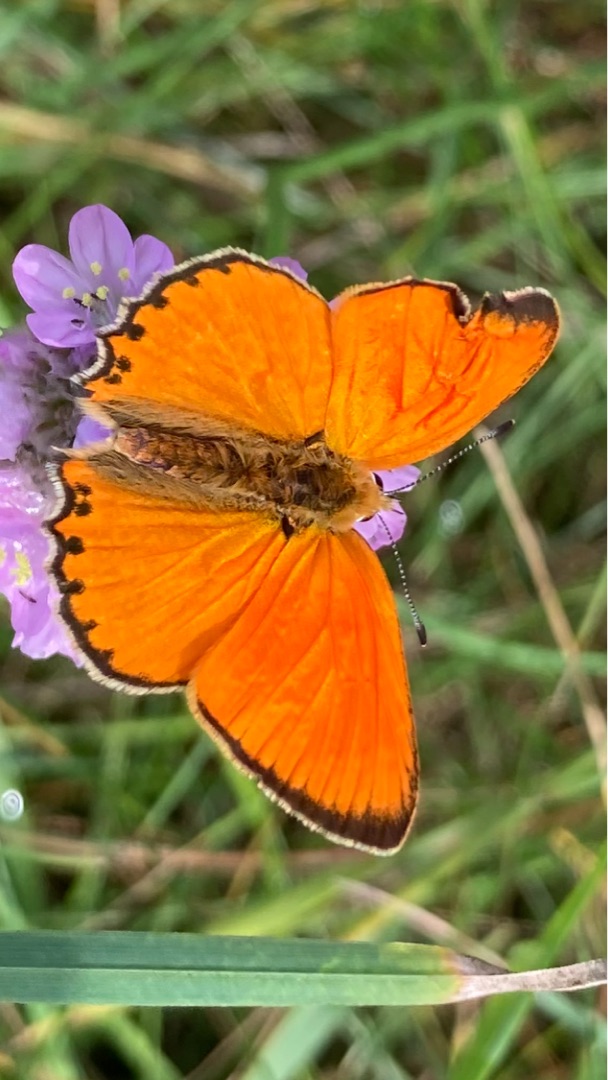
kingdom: Animalia
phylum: Arthropoda
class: Insecta
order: Lepidoptera
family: Lycaenidae
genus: Lycaena
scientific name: Lycaena virgaureae
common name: Dukatsommerfugl
